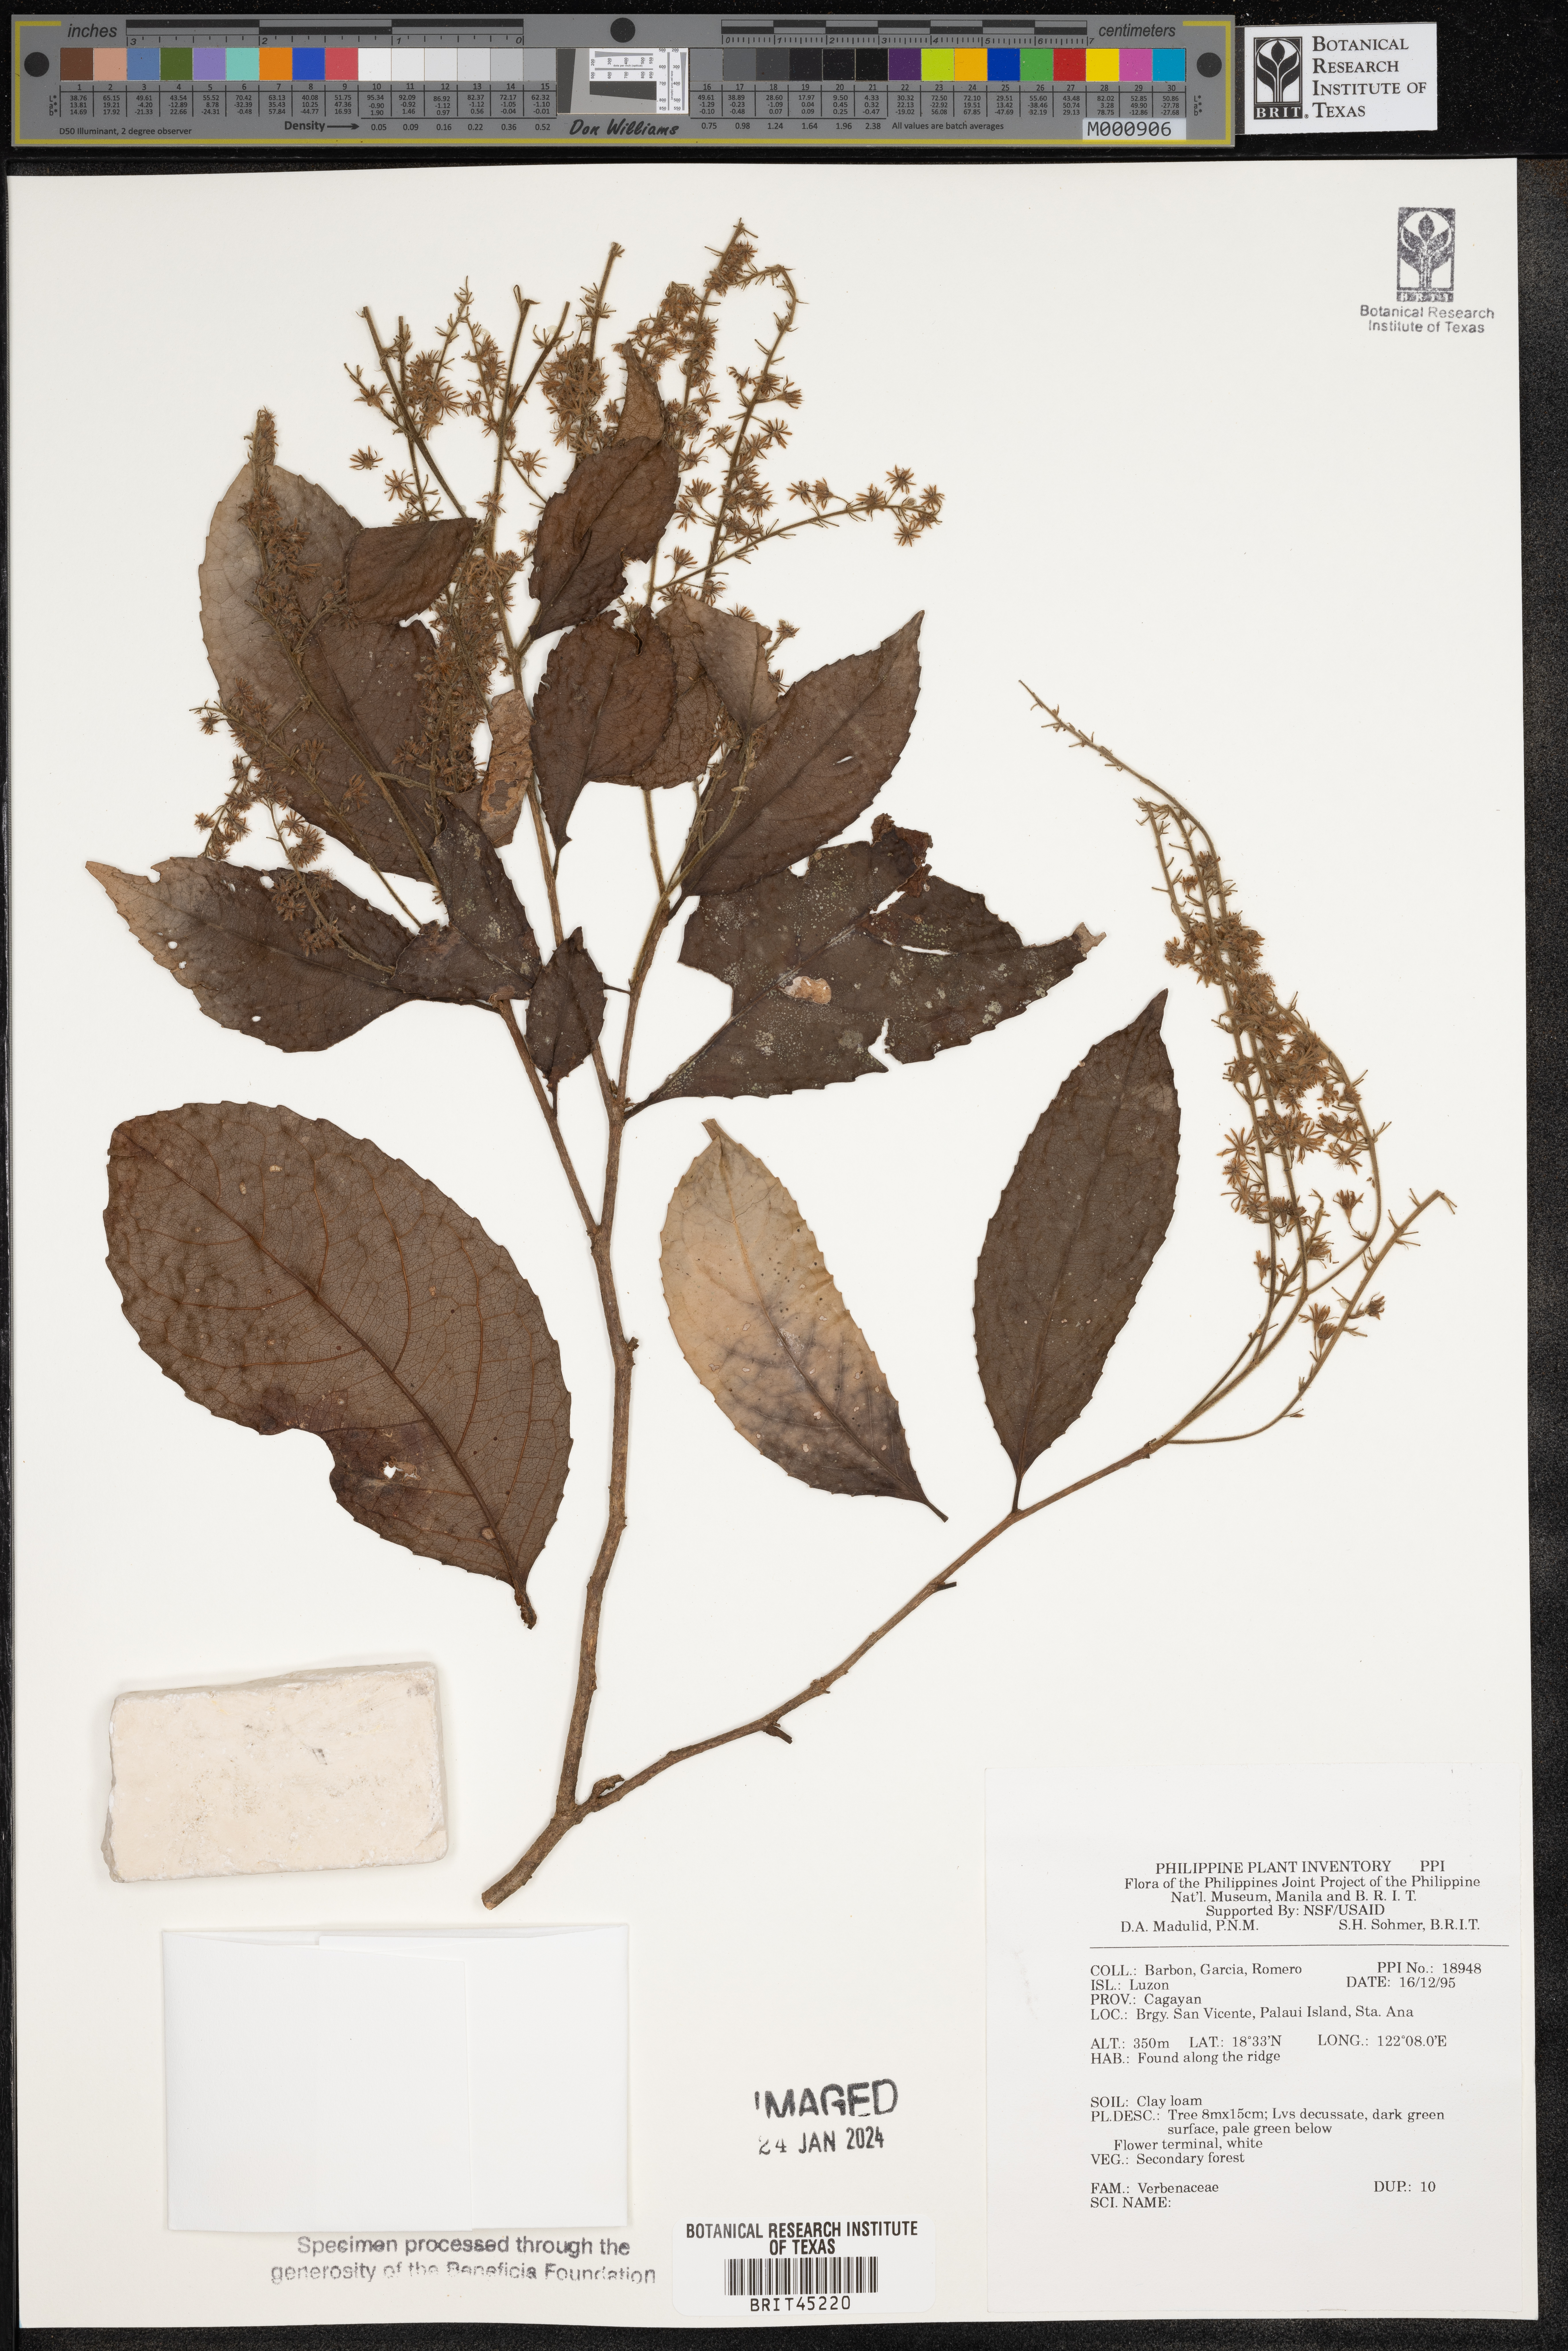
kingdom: Plantae
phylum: Tracheophyta
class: Magnoliopsida
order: Lamiales
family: Verbenaceae
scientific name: Verbenaceae
